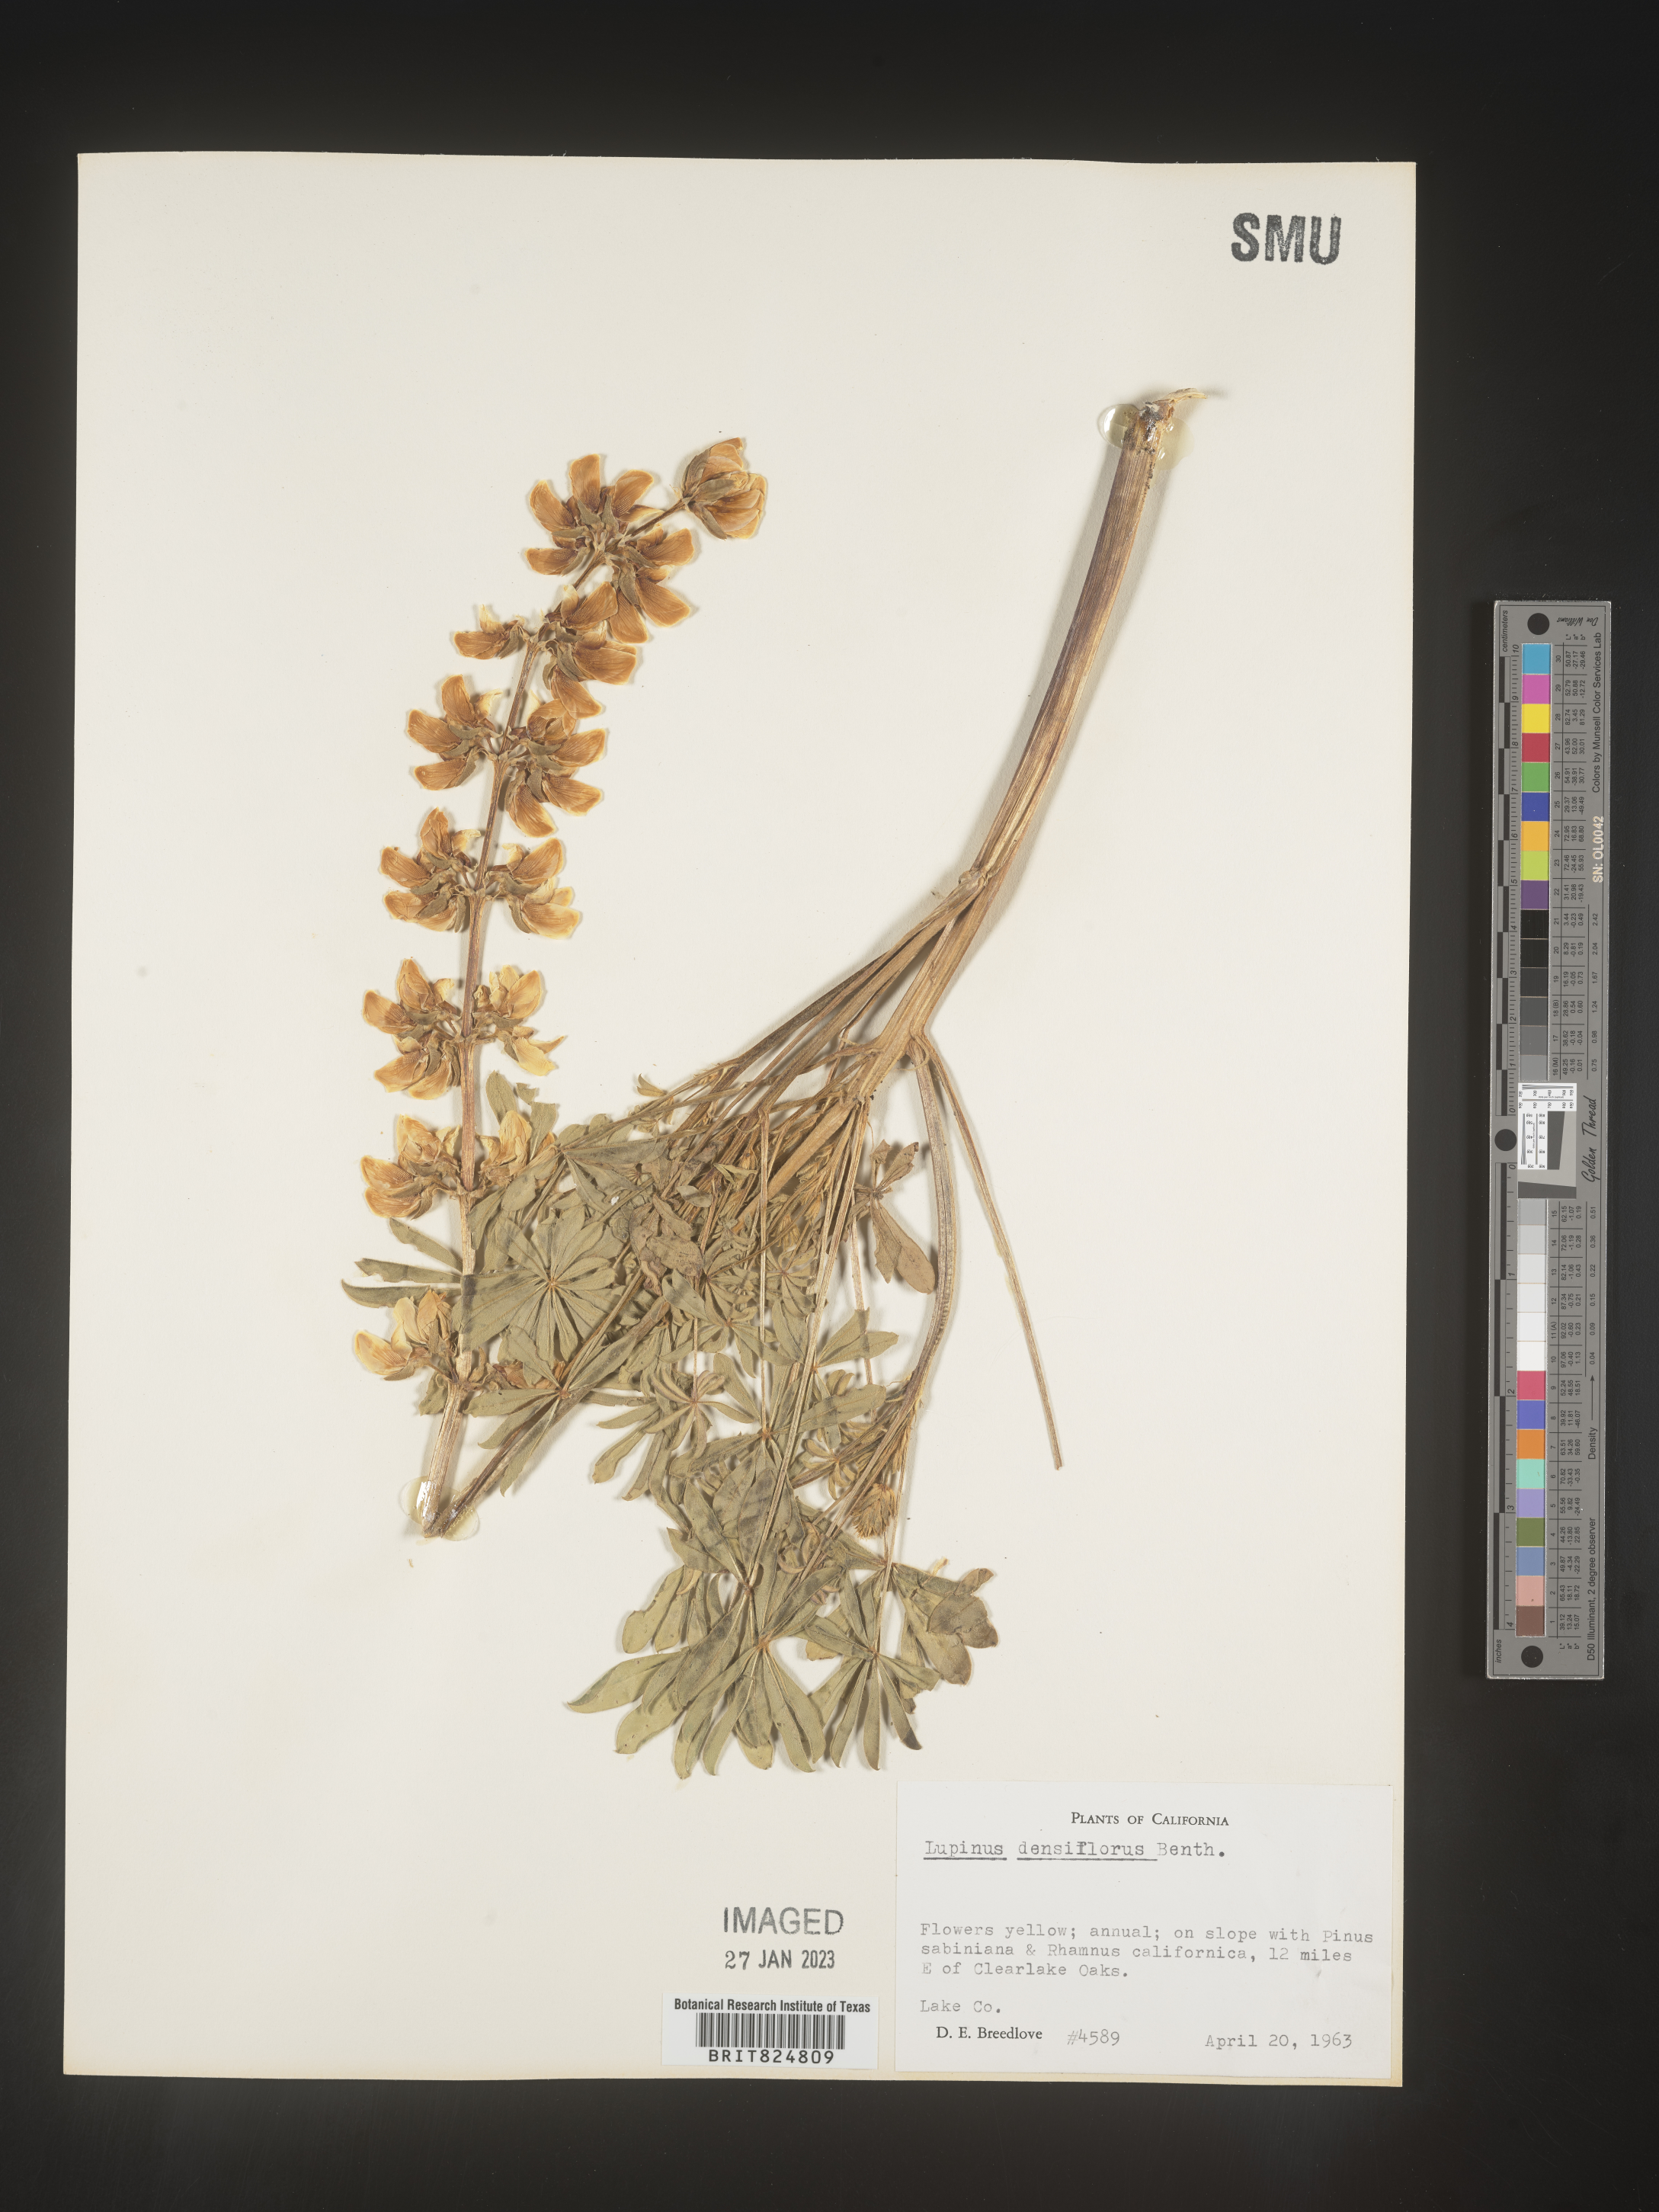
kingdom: Plantae
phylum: Tracheophyta
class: Magnoliopsida
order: Fabales
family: Fabaceae
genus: Lupinus
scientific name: Lupinus
